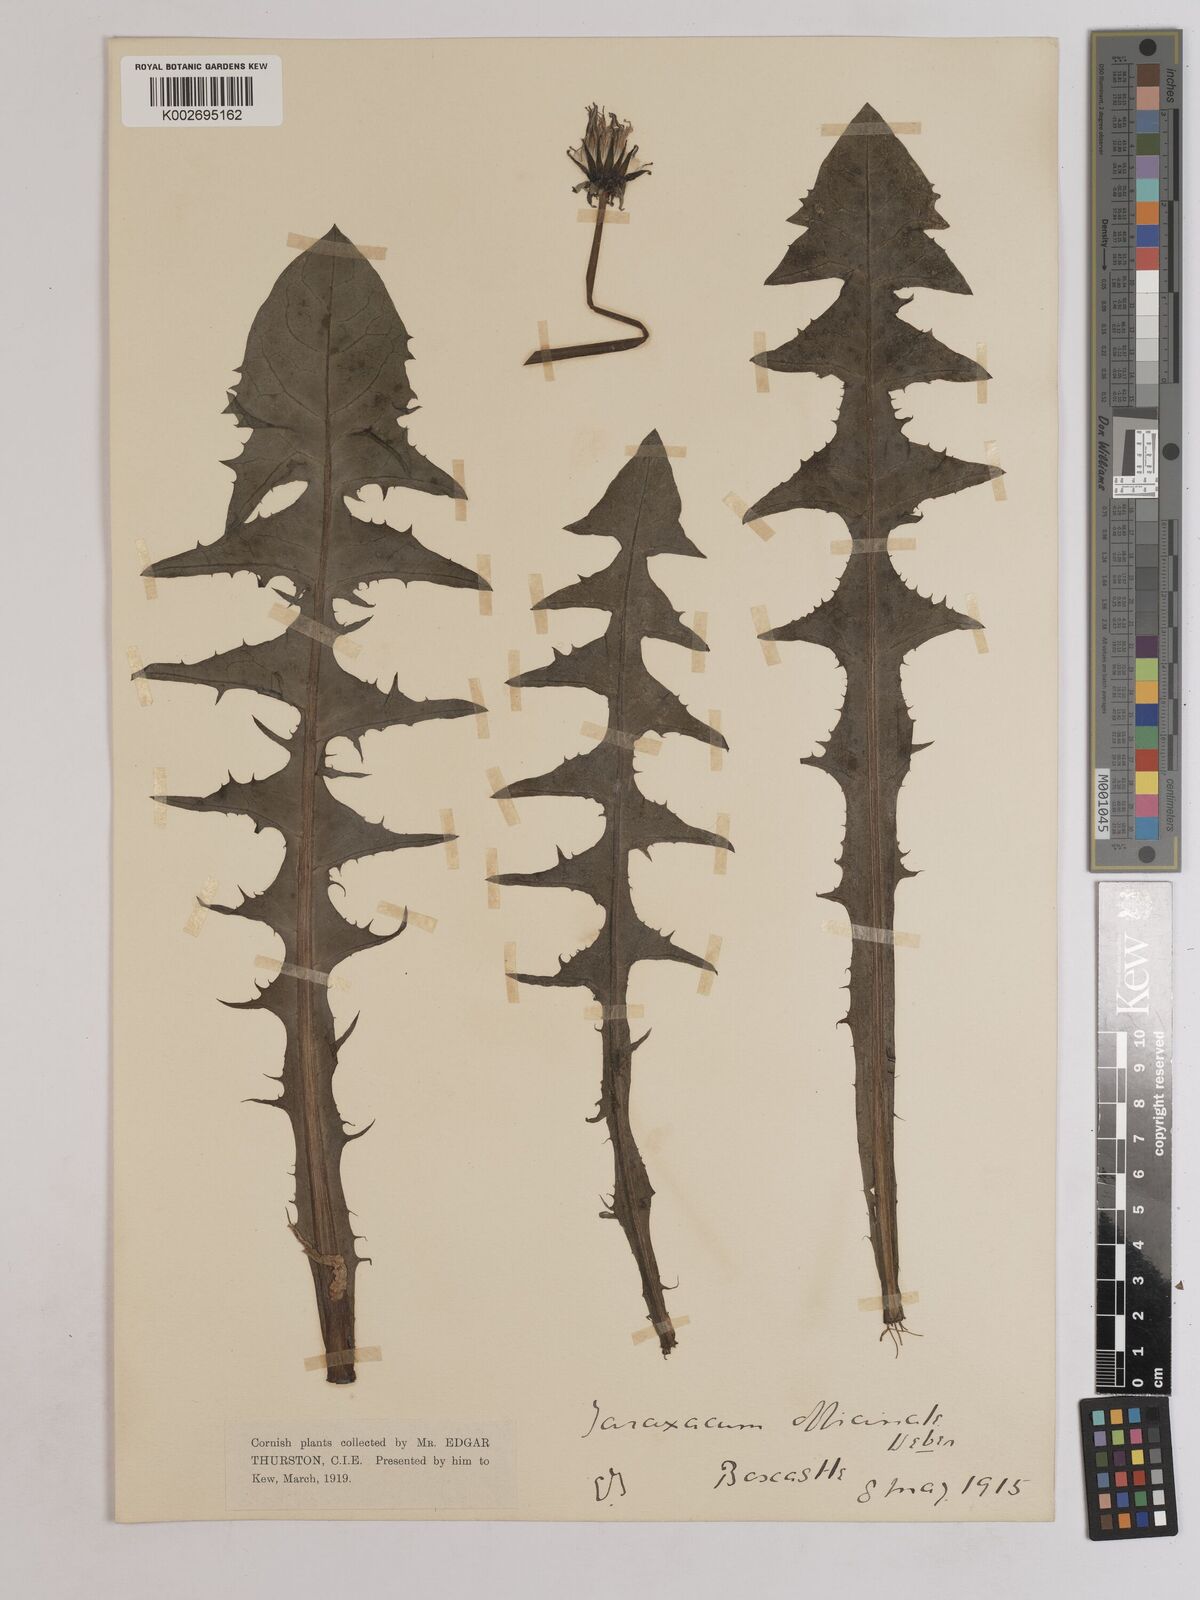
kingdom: Plantae
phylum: Tracheophyta
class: Magnoliopsida
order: Asterales
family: Asteraceae
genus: Taraxacum
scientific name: Taraxacum officinale
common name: Common dandelion
